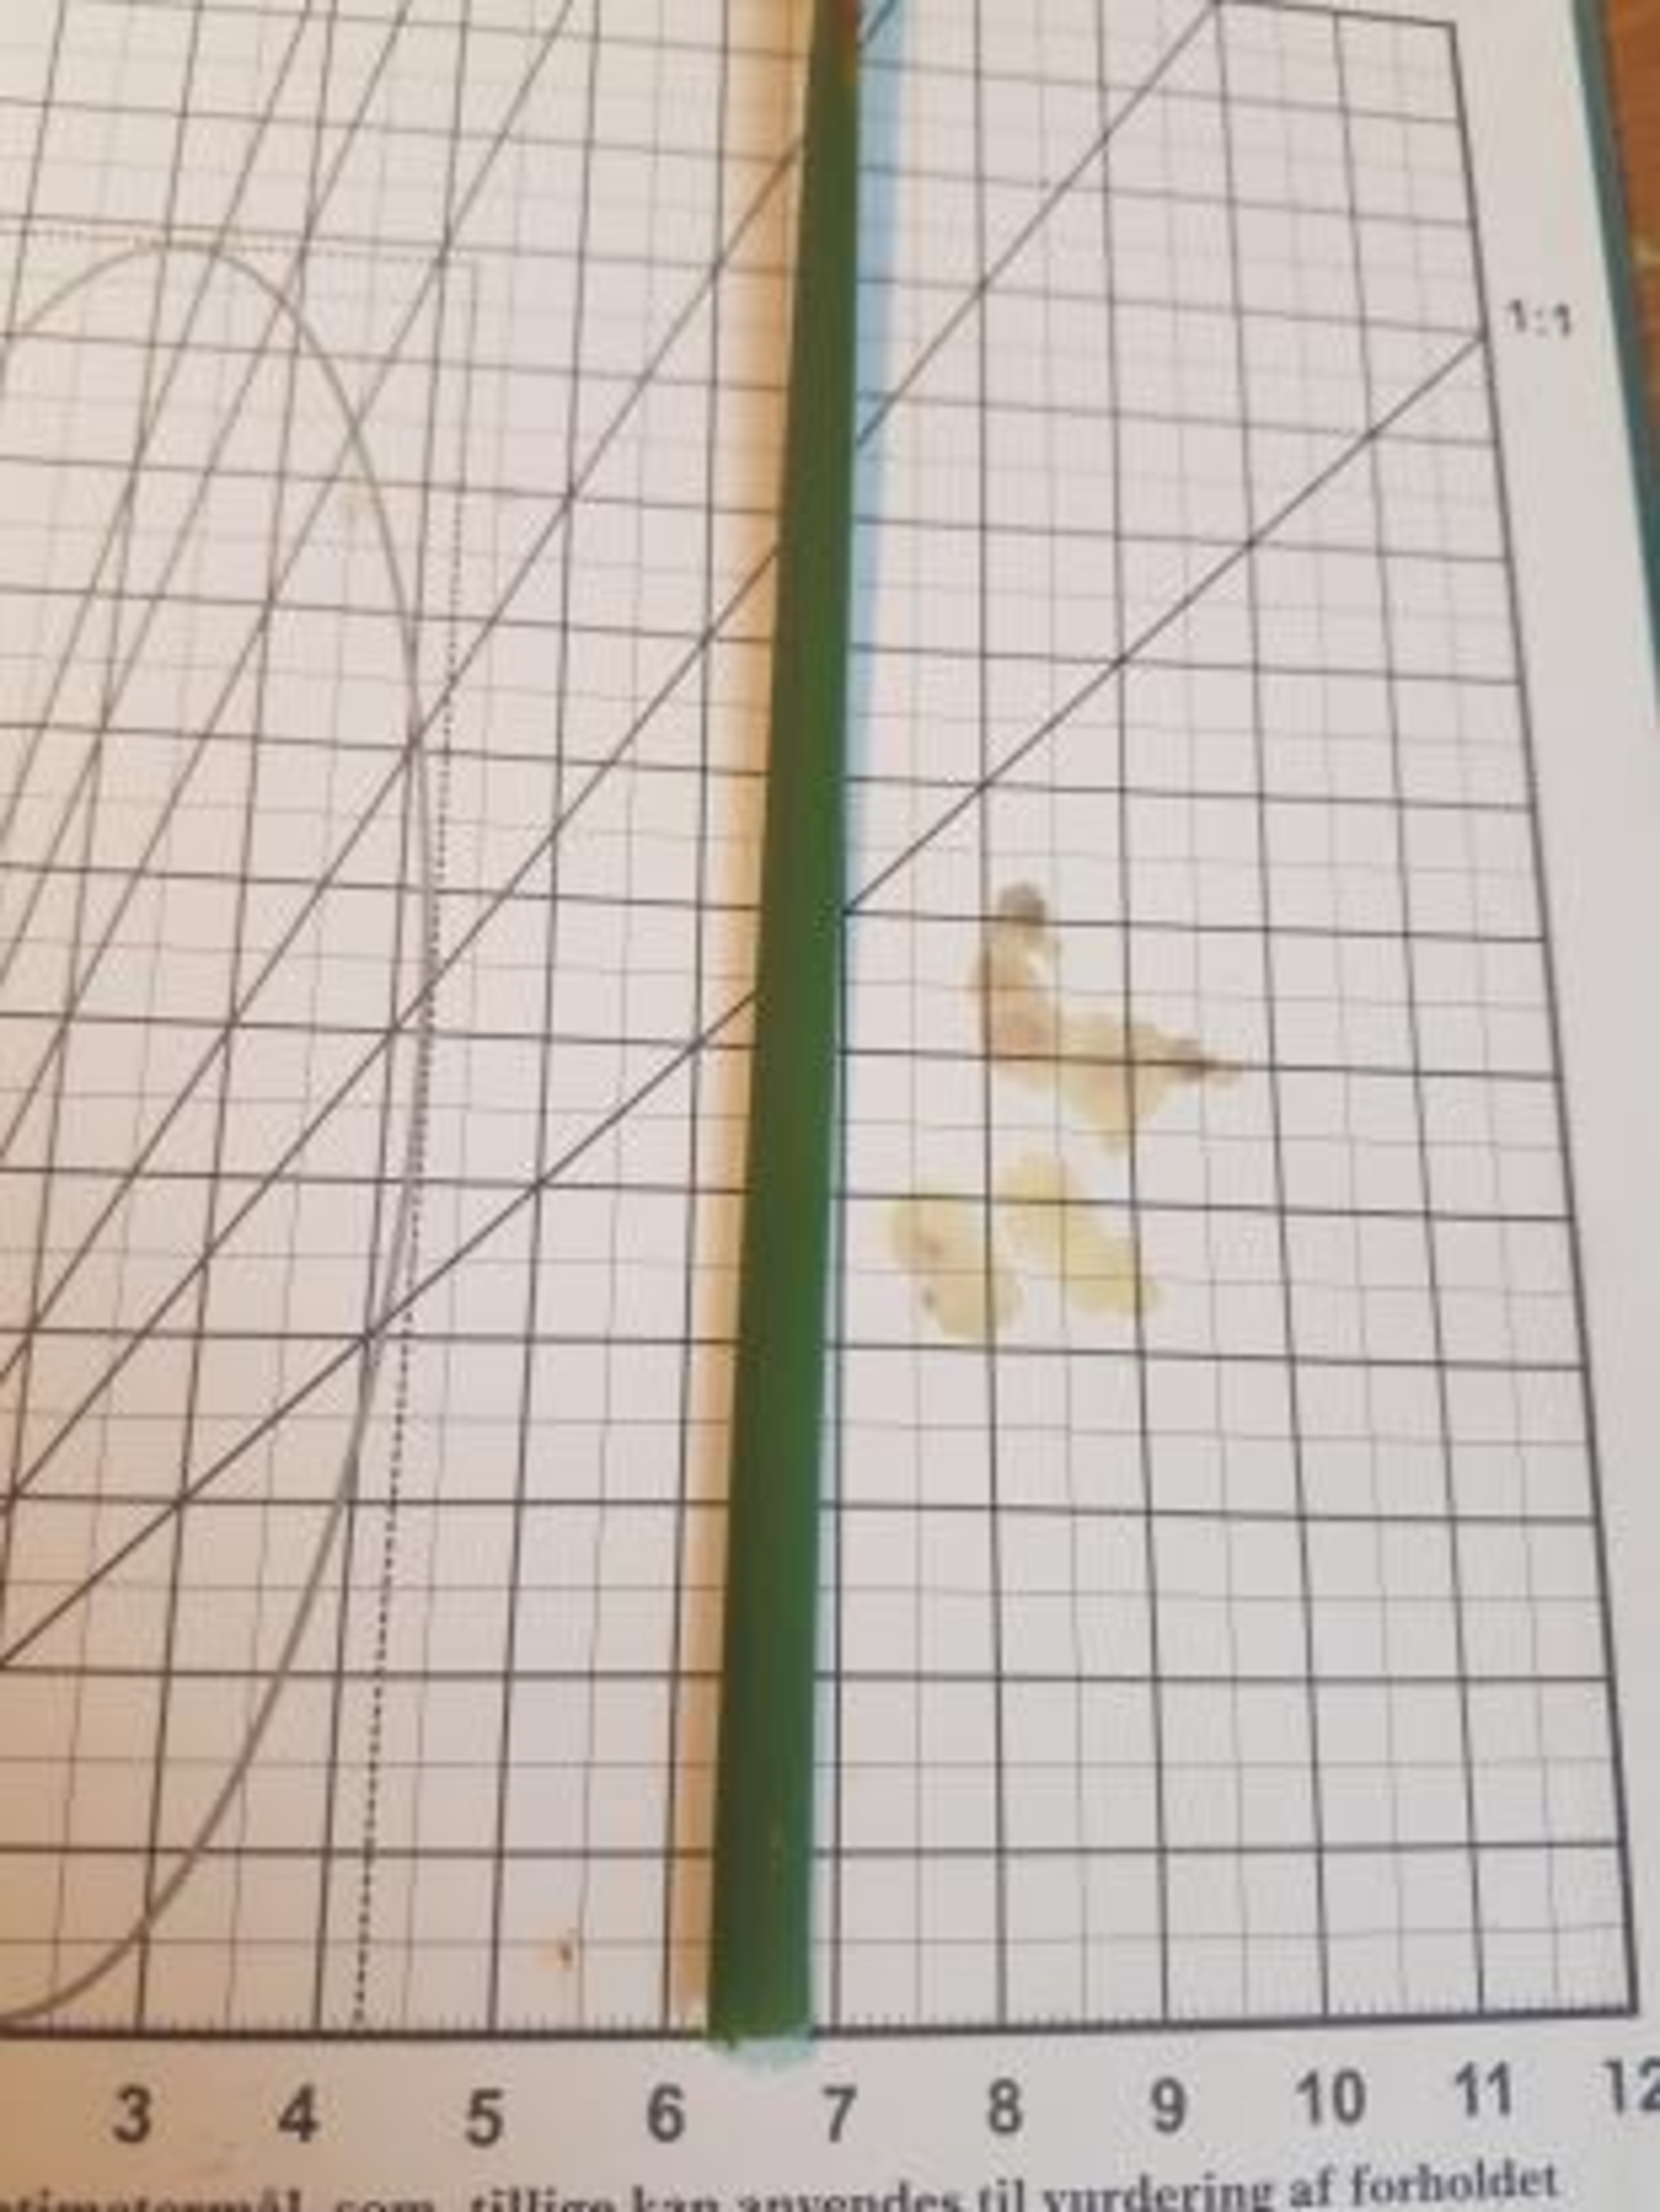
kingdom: Plantae
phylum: Tracheophyta
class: Liliopsida
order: Poales
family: Typhaceae
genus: Typha
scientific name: Typha angustifolia
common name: Smalbladet dunhammer
